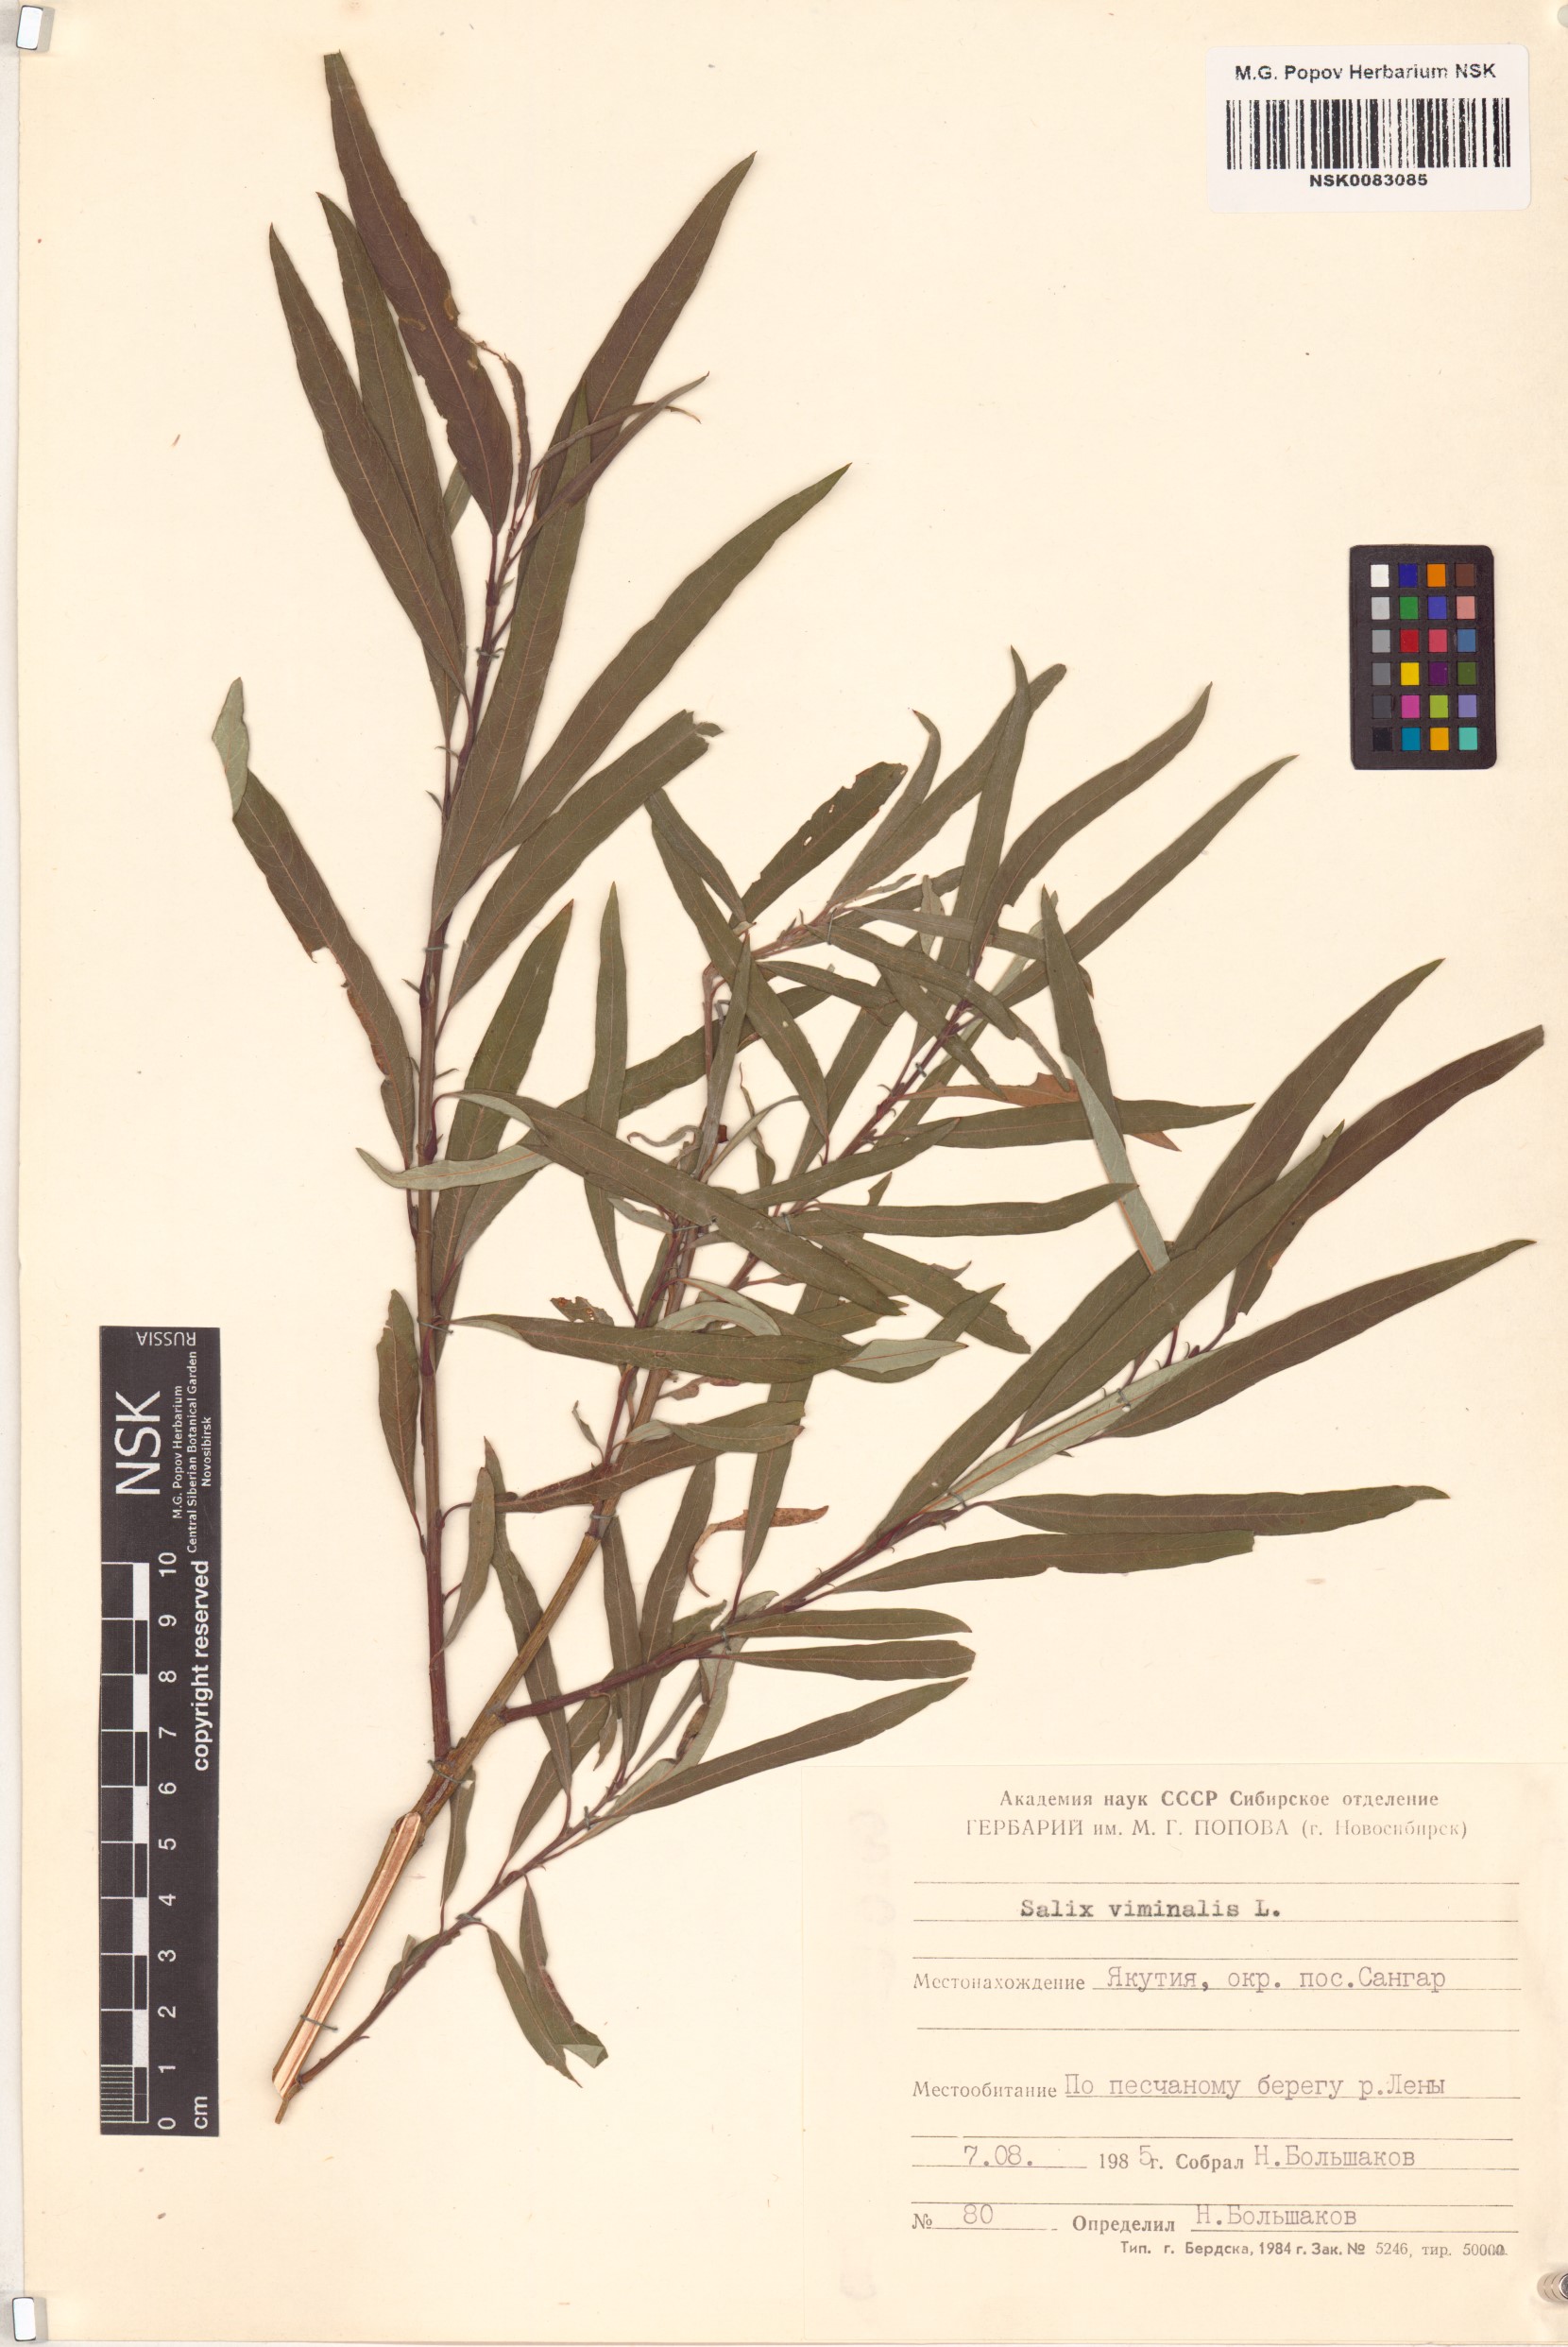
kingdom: Plantae
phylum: Tracheophyta
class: Magnoliopsida
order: Malpighiales
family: Salicaceae
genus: Salix
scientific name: Salix viminalis
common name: Osier
